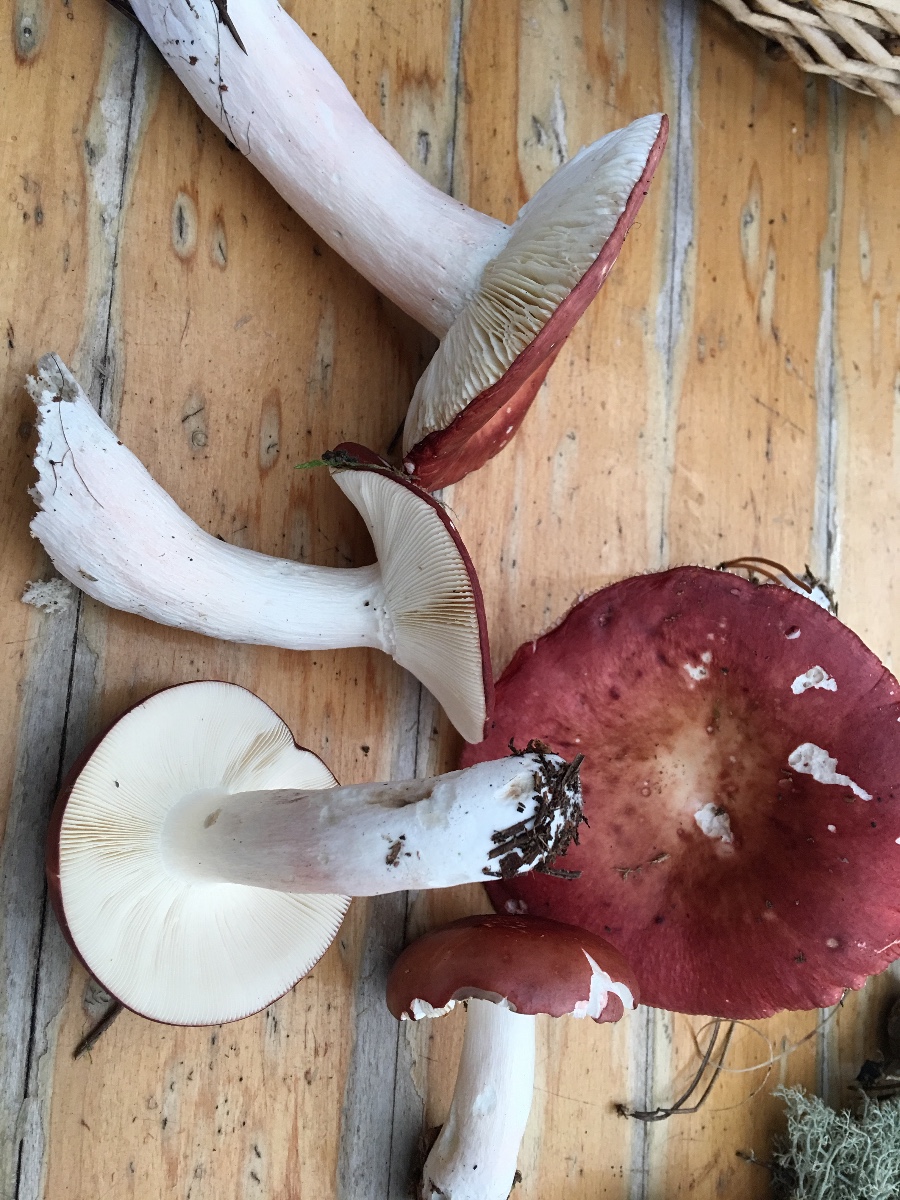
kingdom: Fungi
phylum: Basidiomycota
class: Agaricomycetes
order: Russulales
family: Russulaceae
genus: Russula
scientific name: Russula paludosa
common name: prægtig skørhat
